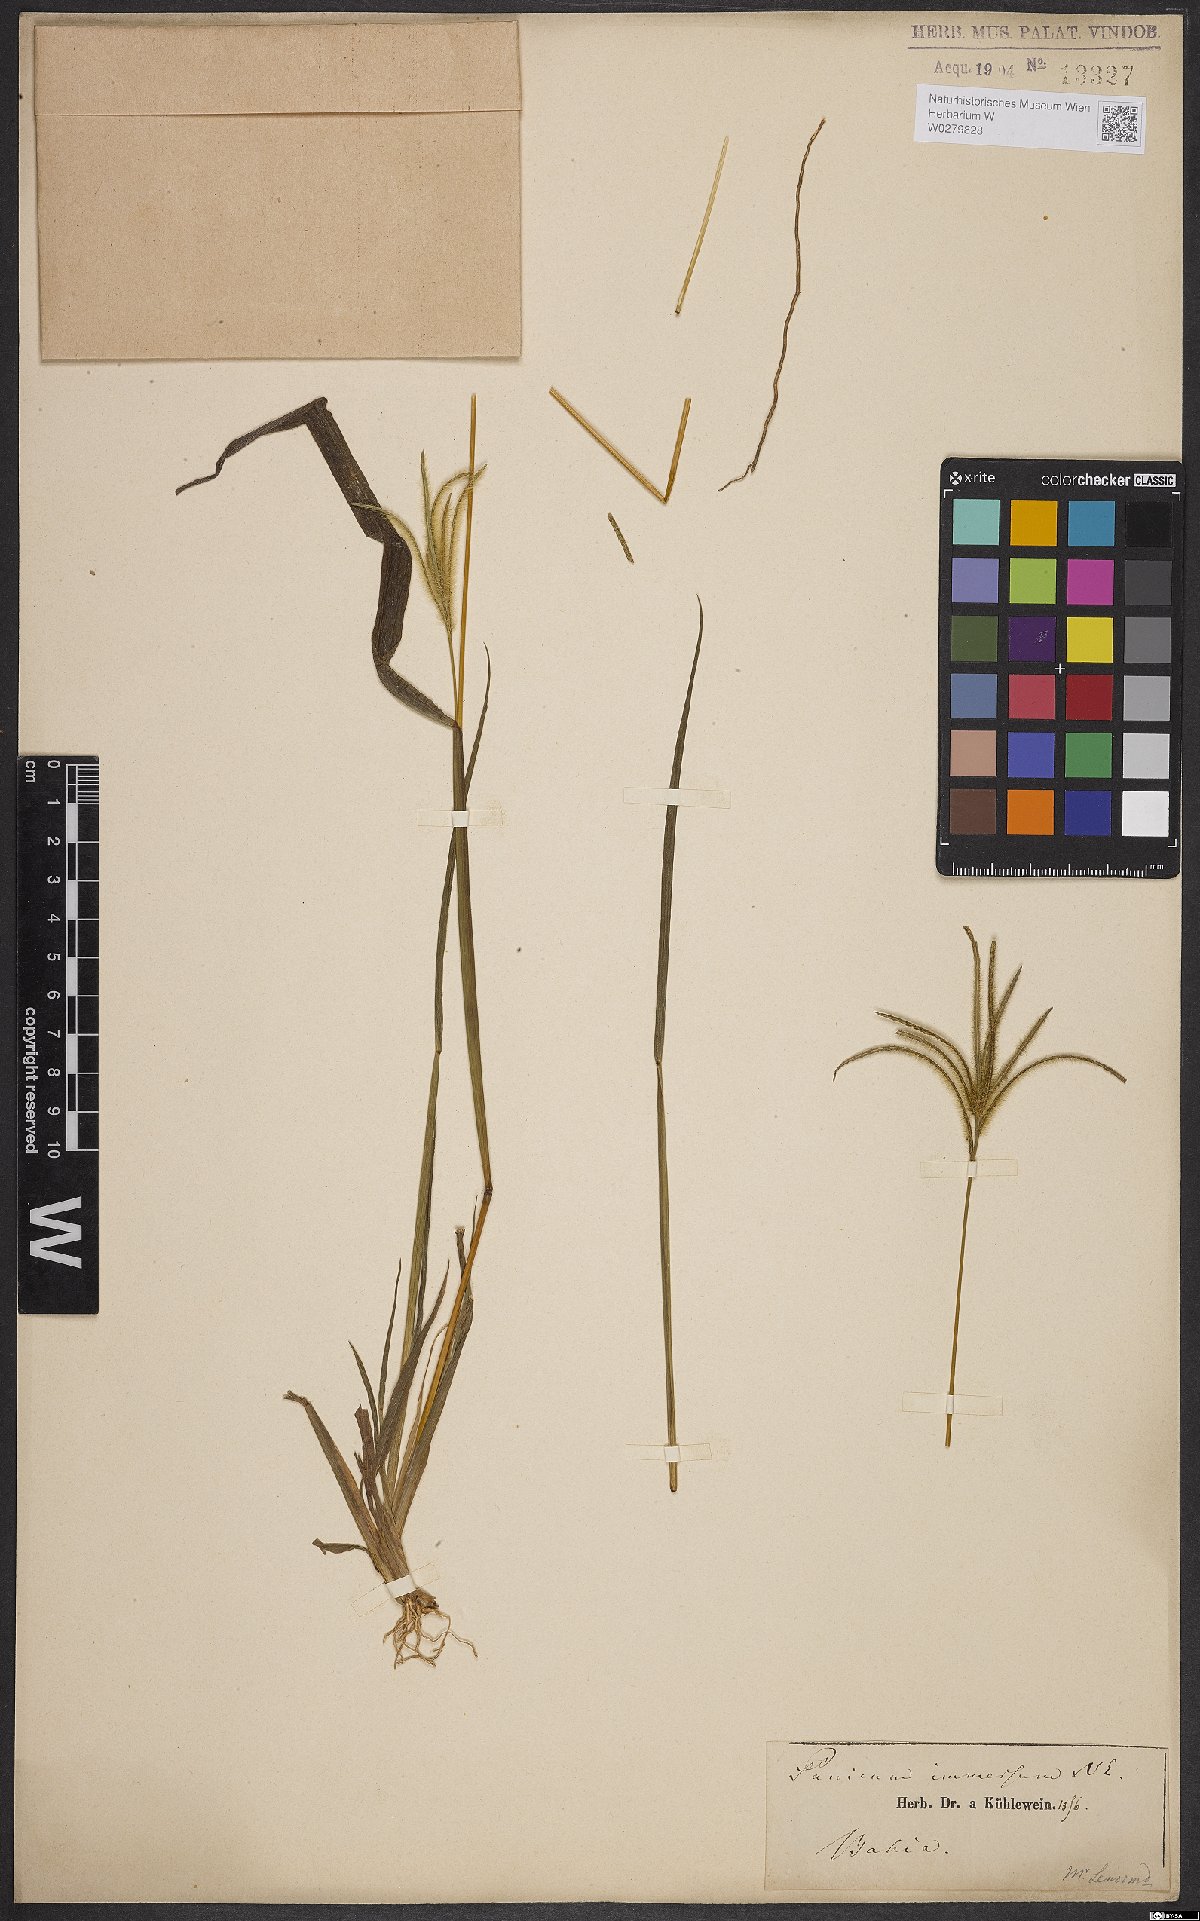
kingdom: Plantae
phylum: Tracheophyta
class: Liliopsida
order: Poales
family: Poaceae
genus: Axonopus
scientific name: Axonopus aureus
